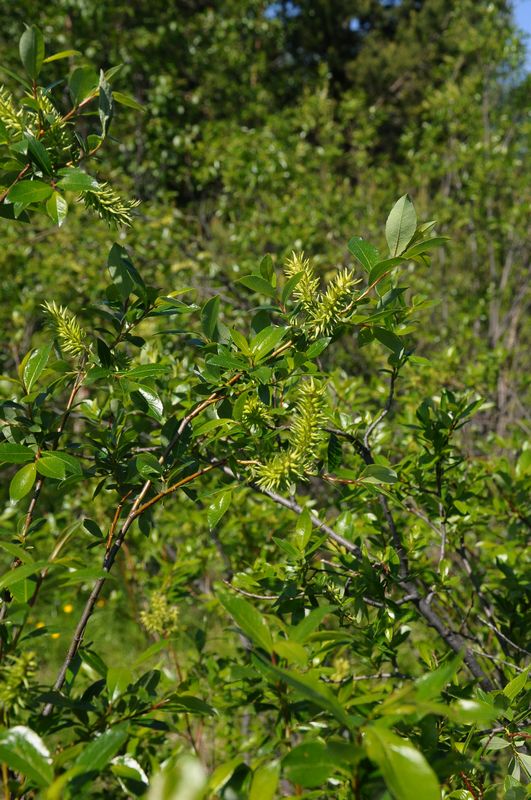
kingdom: Plantae
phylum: Tracheophyta
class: Magnoliopsida
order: Malpighiales
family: Salicaceae
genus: Salix
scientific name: Salix phylicifolia
